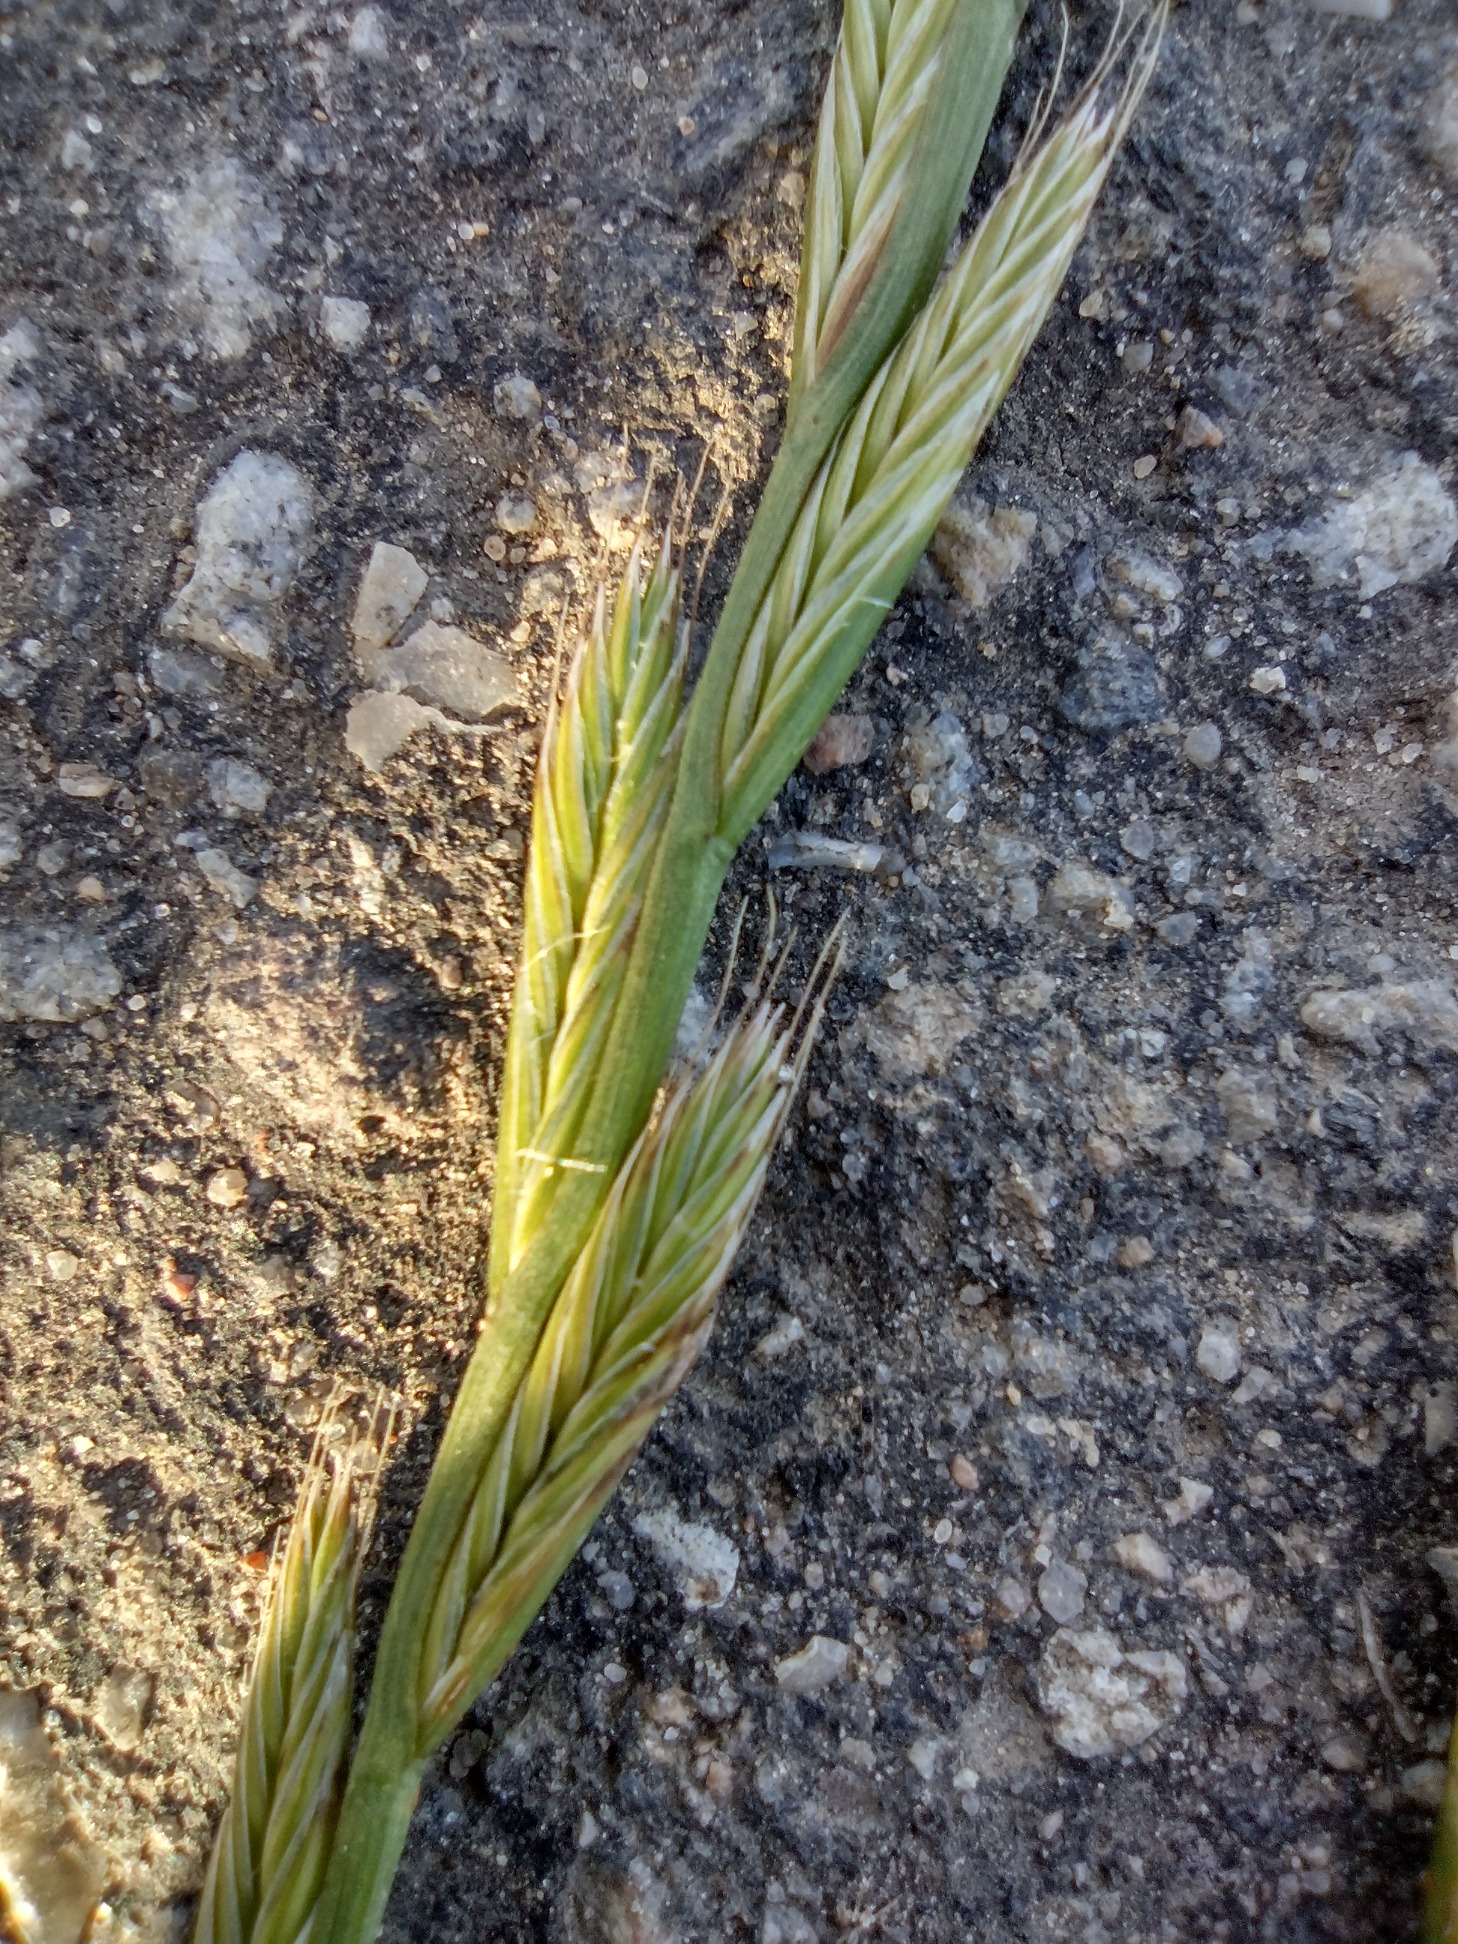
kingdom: Plantae
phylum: Tracheophyta
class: Liliopsida
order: Poales
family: Poaceae
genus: Lolium
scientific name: Lolium multiflorum
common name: Italiensk rajgræs
